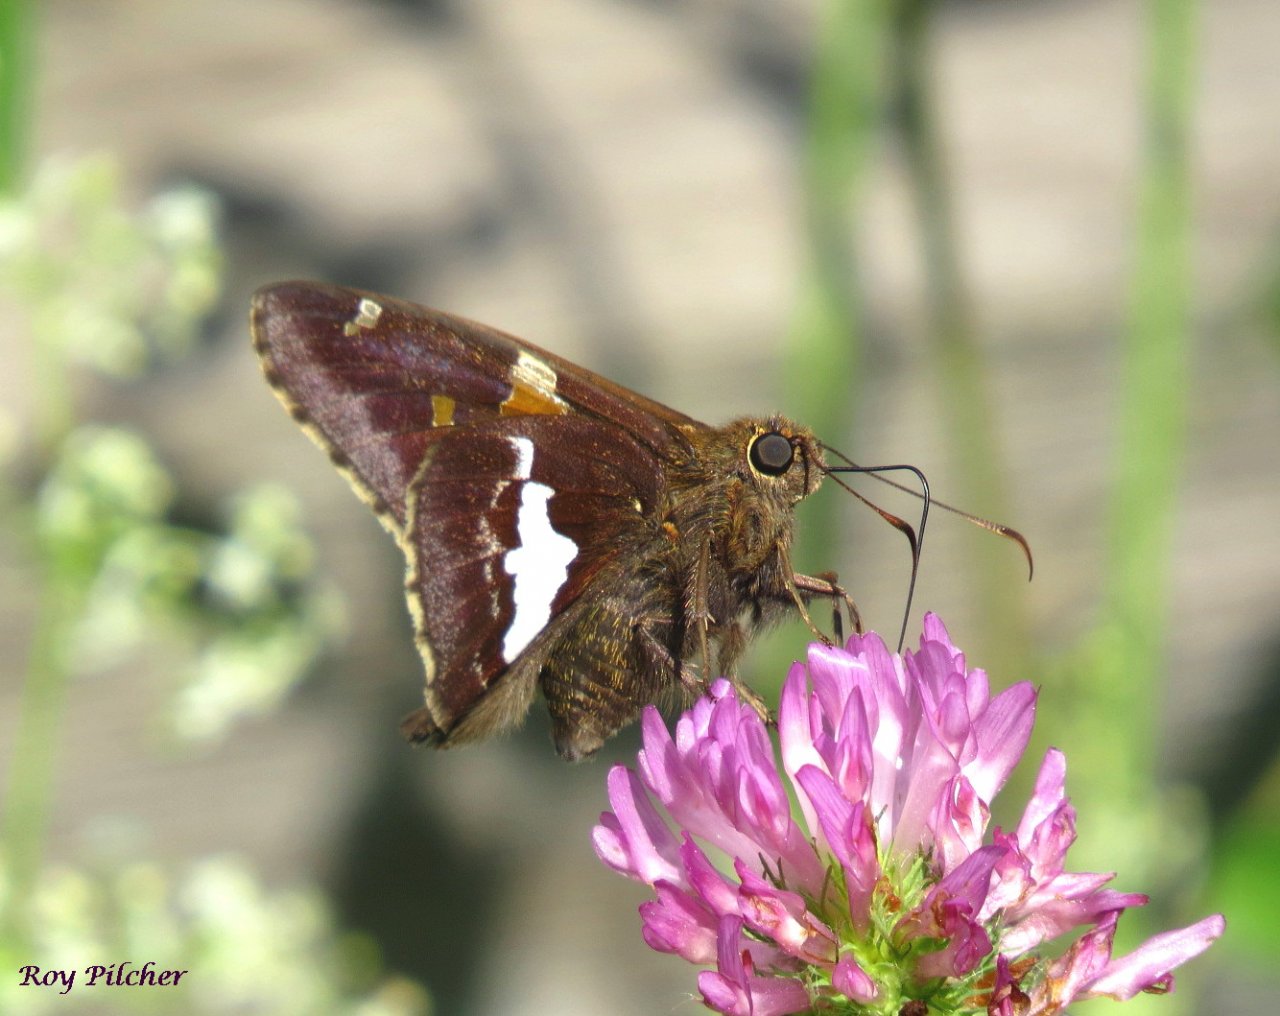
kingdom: Animalia
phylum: Arthropoda
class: Insecta
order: Lepidoptera
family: Hesperiidae
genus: Epargyreus
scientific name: Epargyreus clarus
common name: Silver-spotted Skipper
